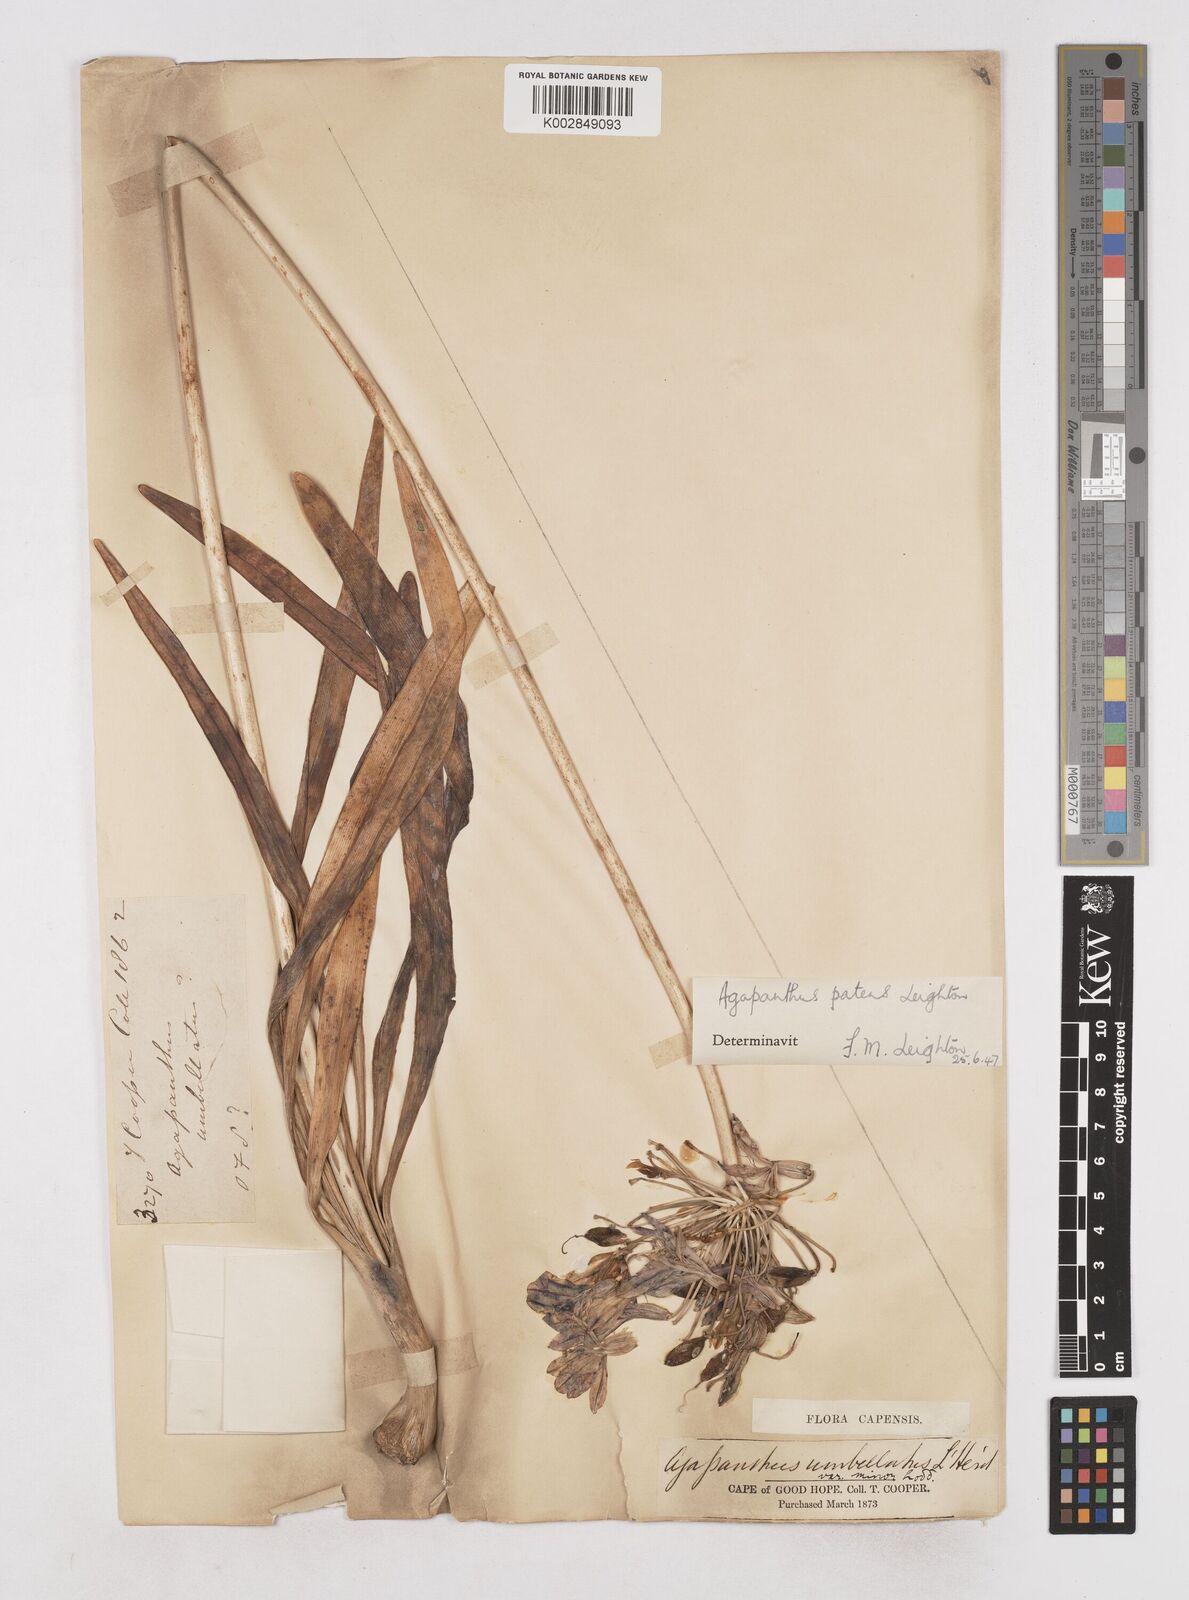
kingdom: Plantae
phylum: Tracheophyta
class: Liliopsida
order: Asparagales
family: Amaryllidaceae
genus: Agapanthus
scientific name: Agapanthus campanulatus
